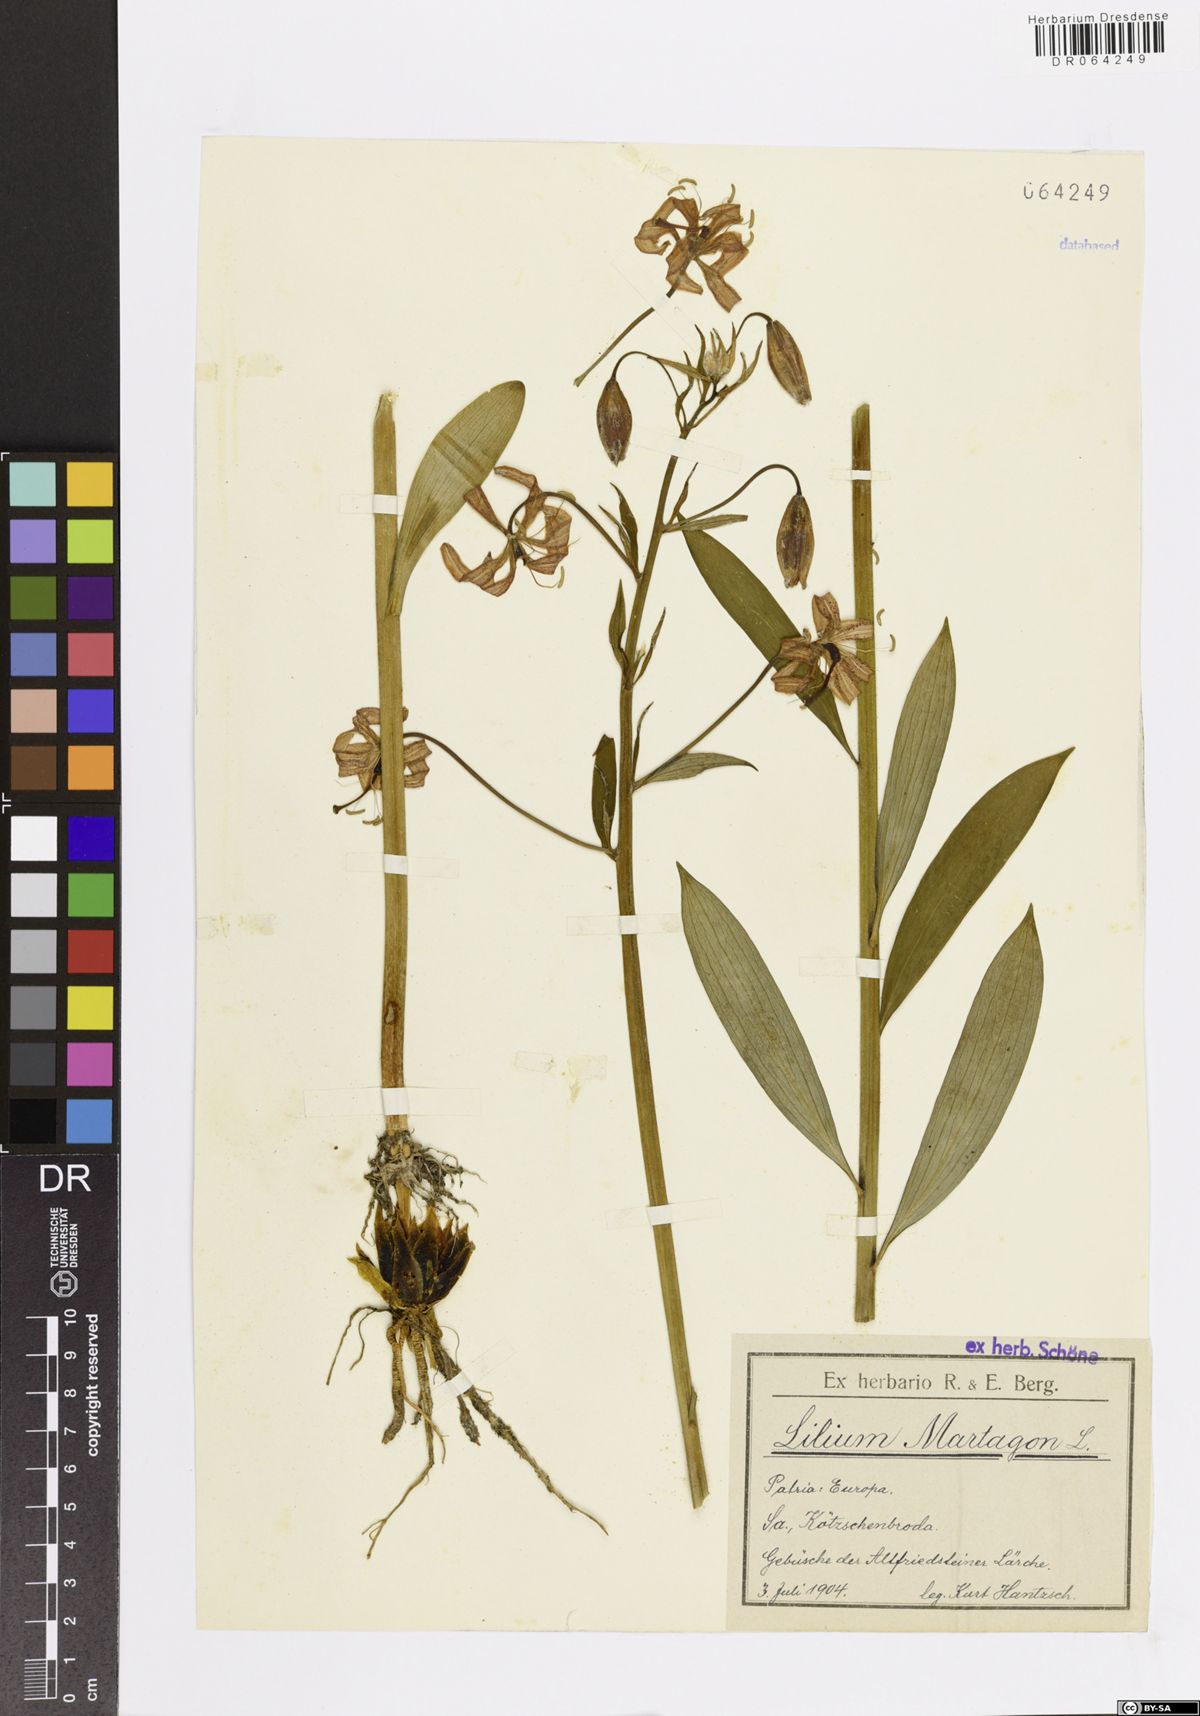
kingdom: Plantae
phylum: Tracheophyta
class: Liliopsida
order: Liliales
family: Liliaceae
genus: Lilium
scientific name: Lilium martagon
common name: Martagon lily
